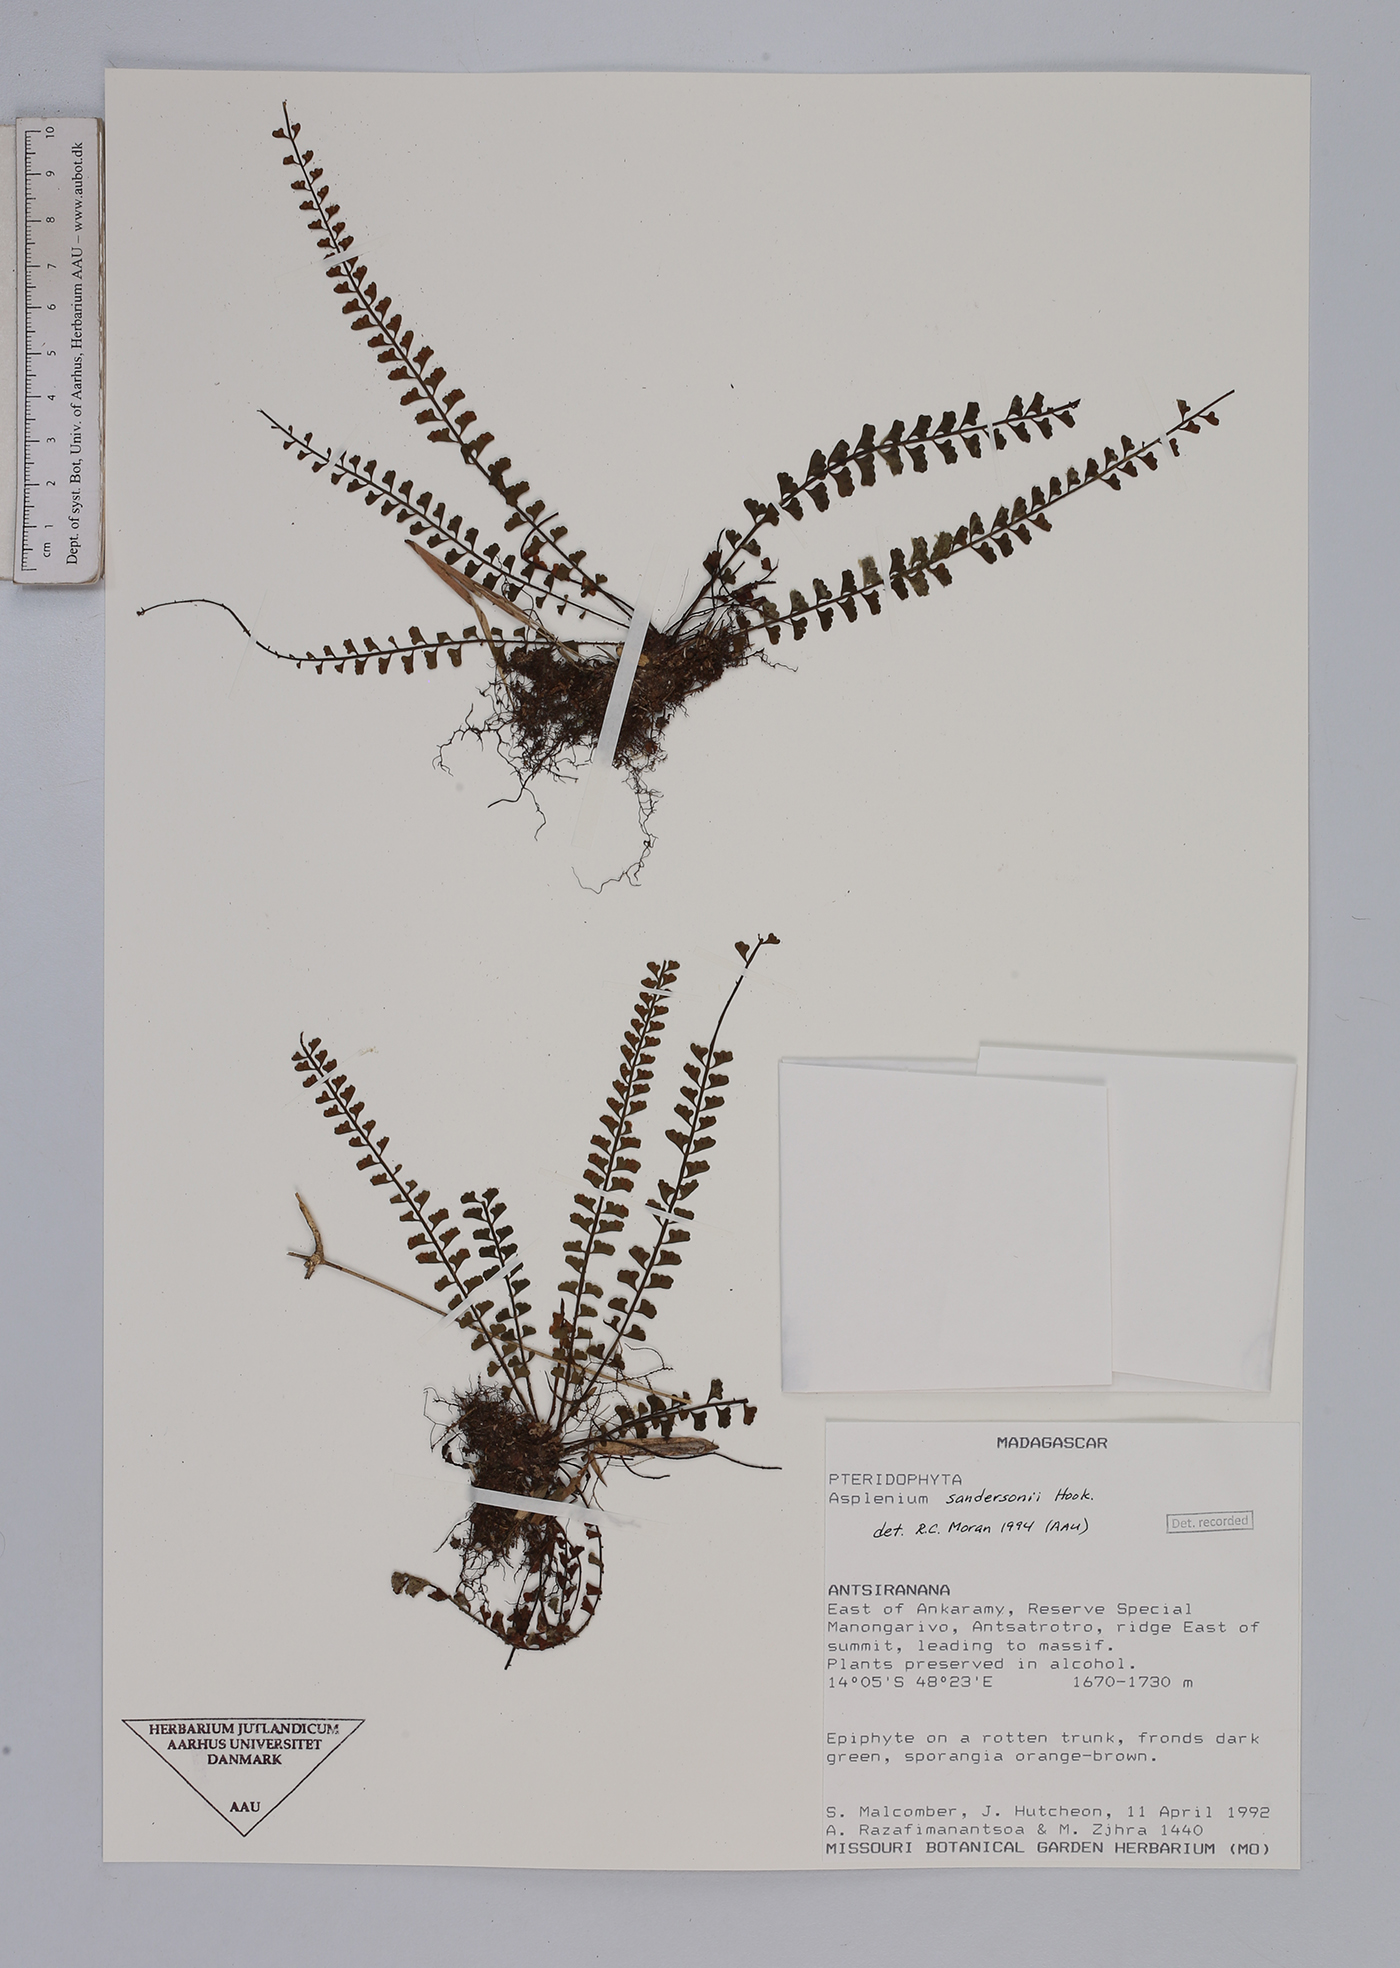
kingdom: Plantae
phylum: Tracheophyta
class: Polypodiopsida
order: Polypodiales
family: Aspleniaceae
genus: Asplenium
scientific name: Asplenium sandersonii
